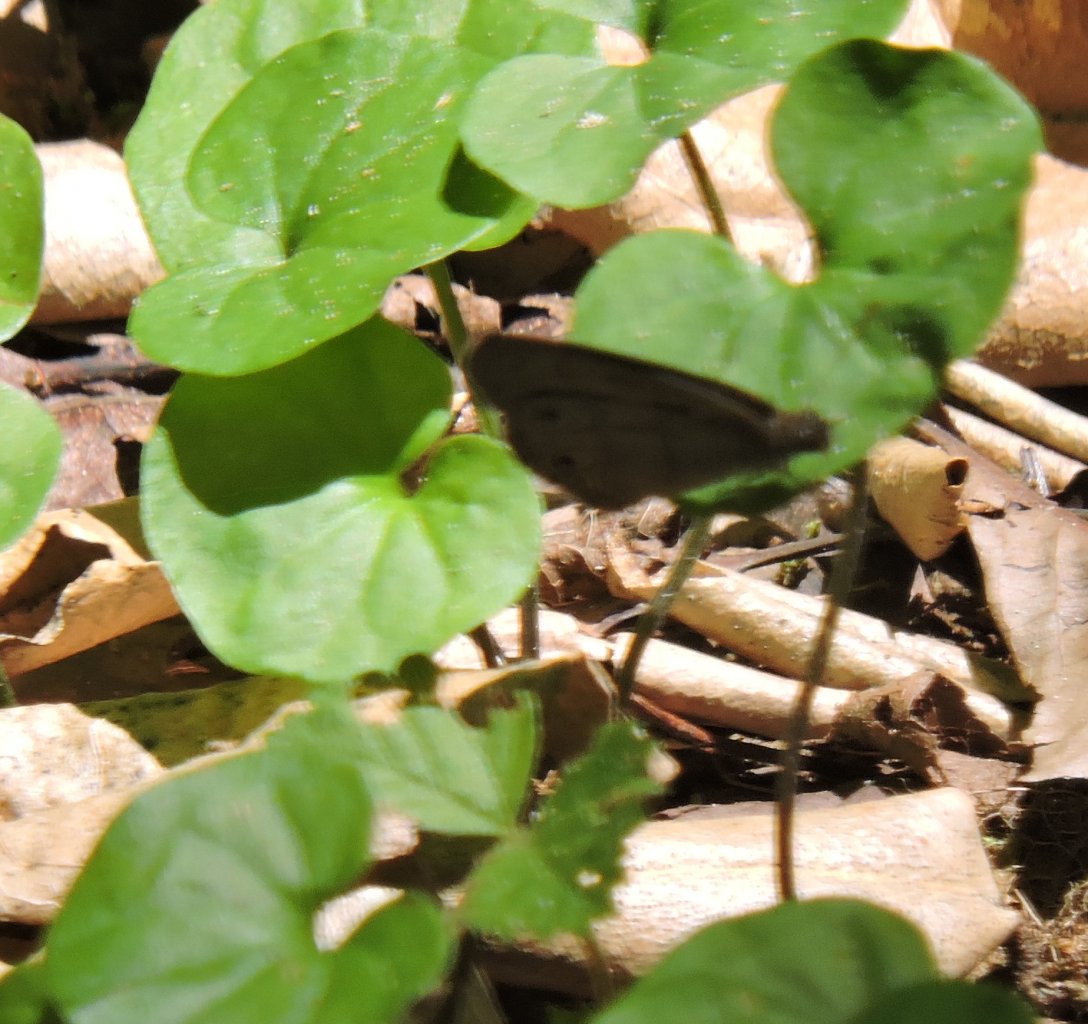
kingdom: Animalia
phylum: Arthropoda
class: Insecta
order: Lepidoptera
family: Nymphalidae
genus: Hermeuptychia
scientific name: Hermeuptychia hermes
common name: Carolina Satyr
